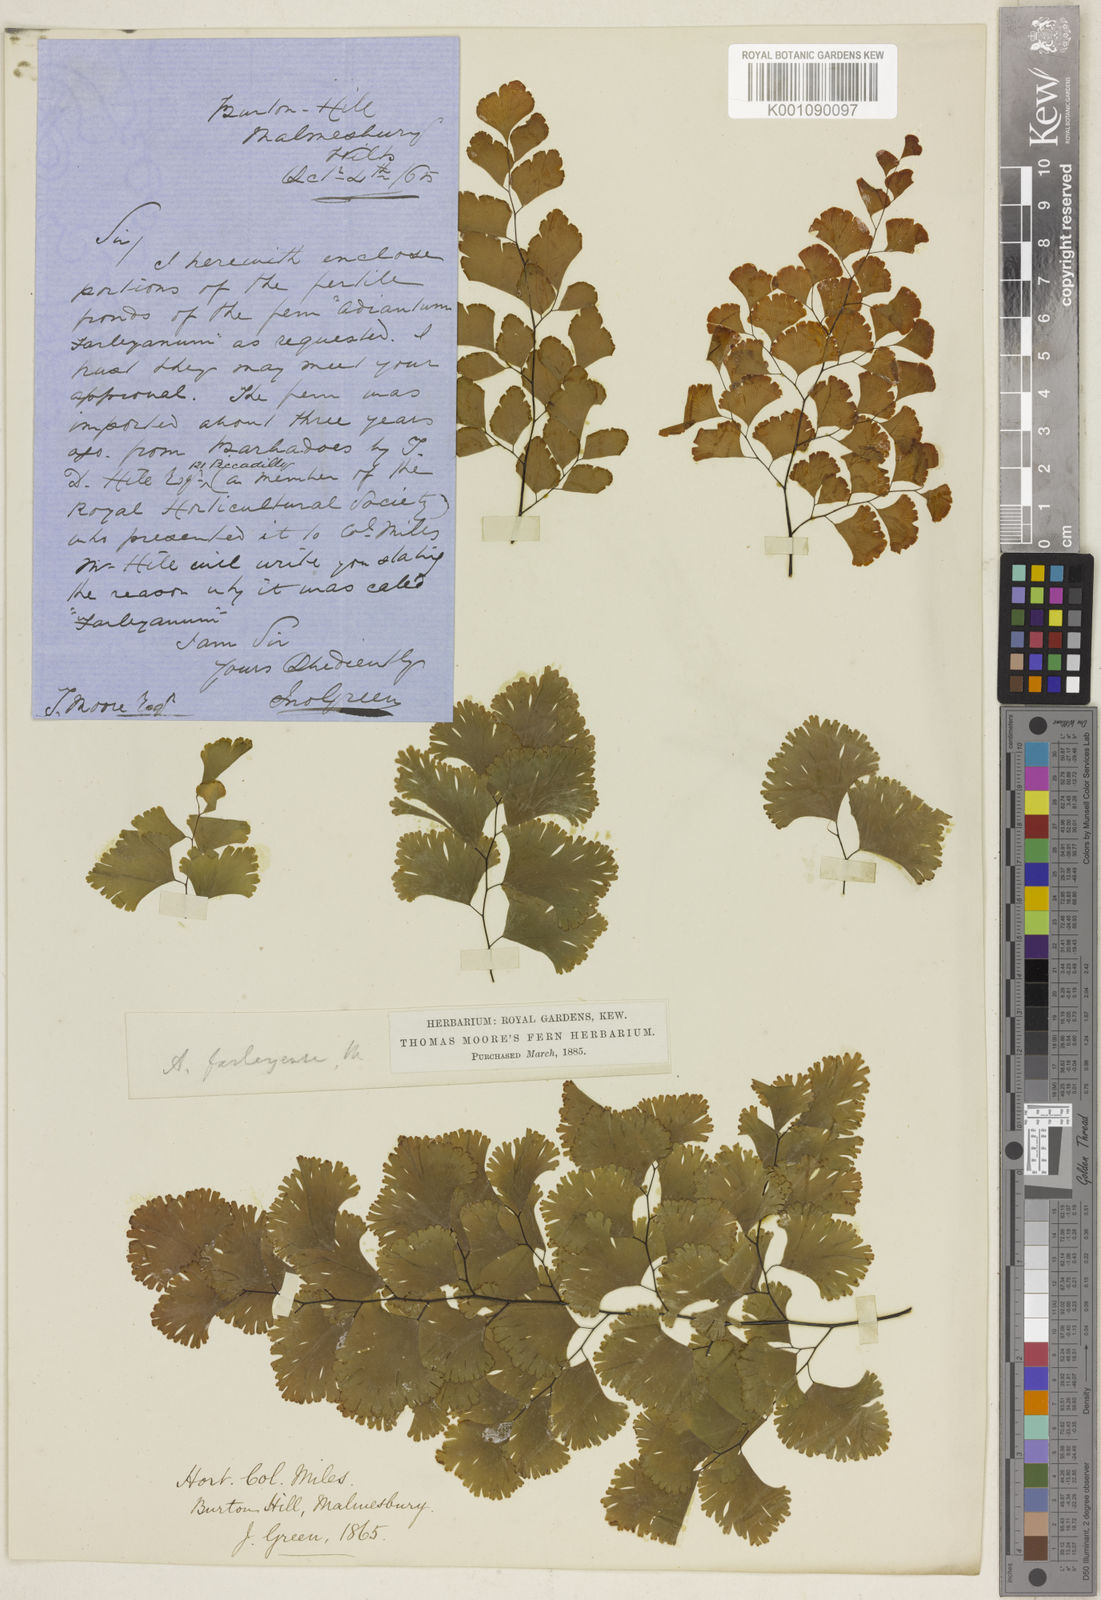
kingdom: Plantae
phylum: Tracheophyta
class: Polypodiopsida
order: Polypodiales
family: Pteridaceae
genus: Adiantum
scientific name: Adiantum tenerum
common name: Fan maidenhair
